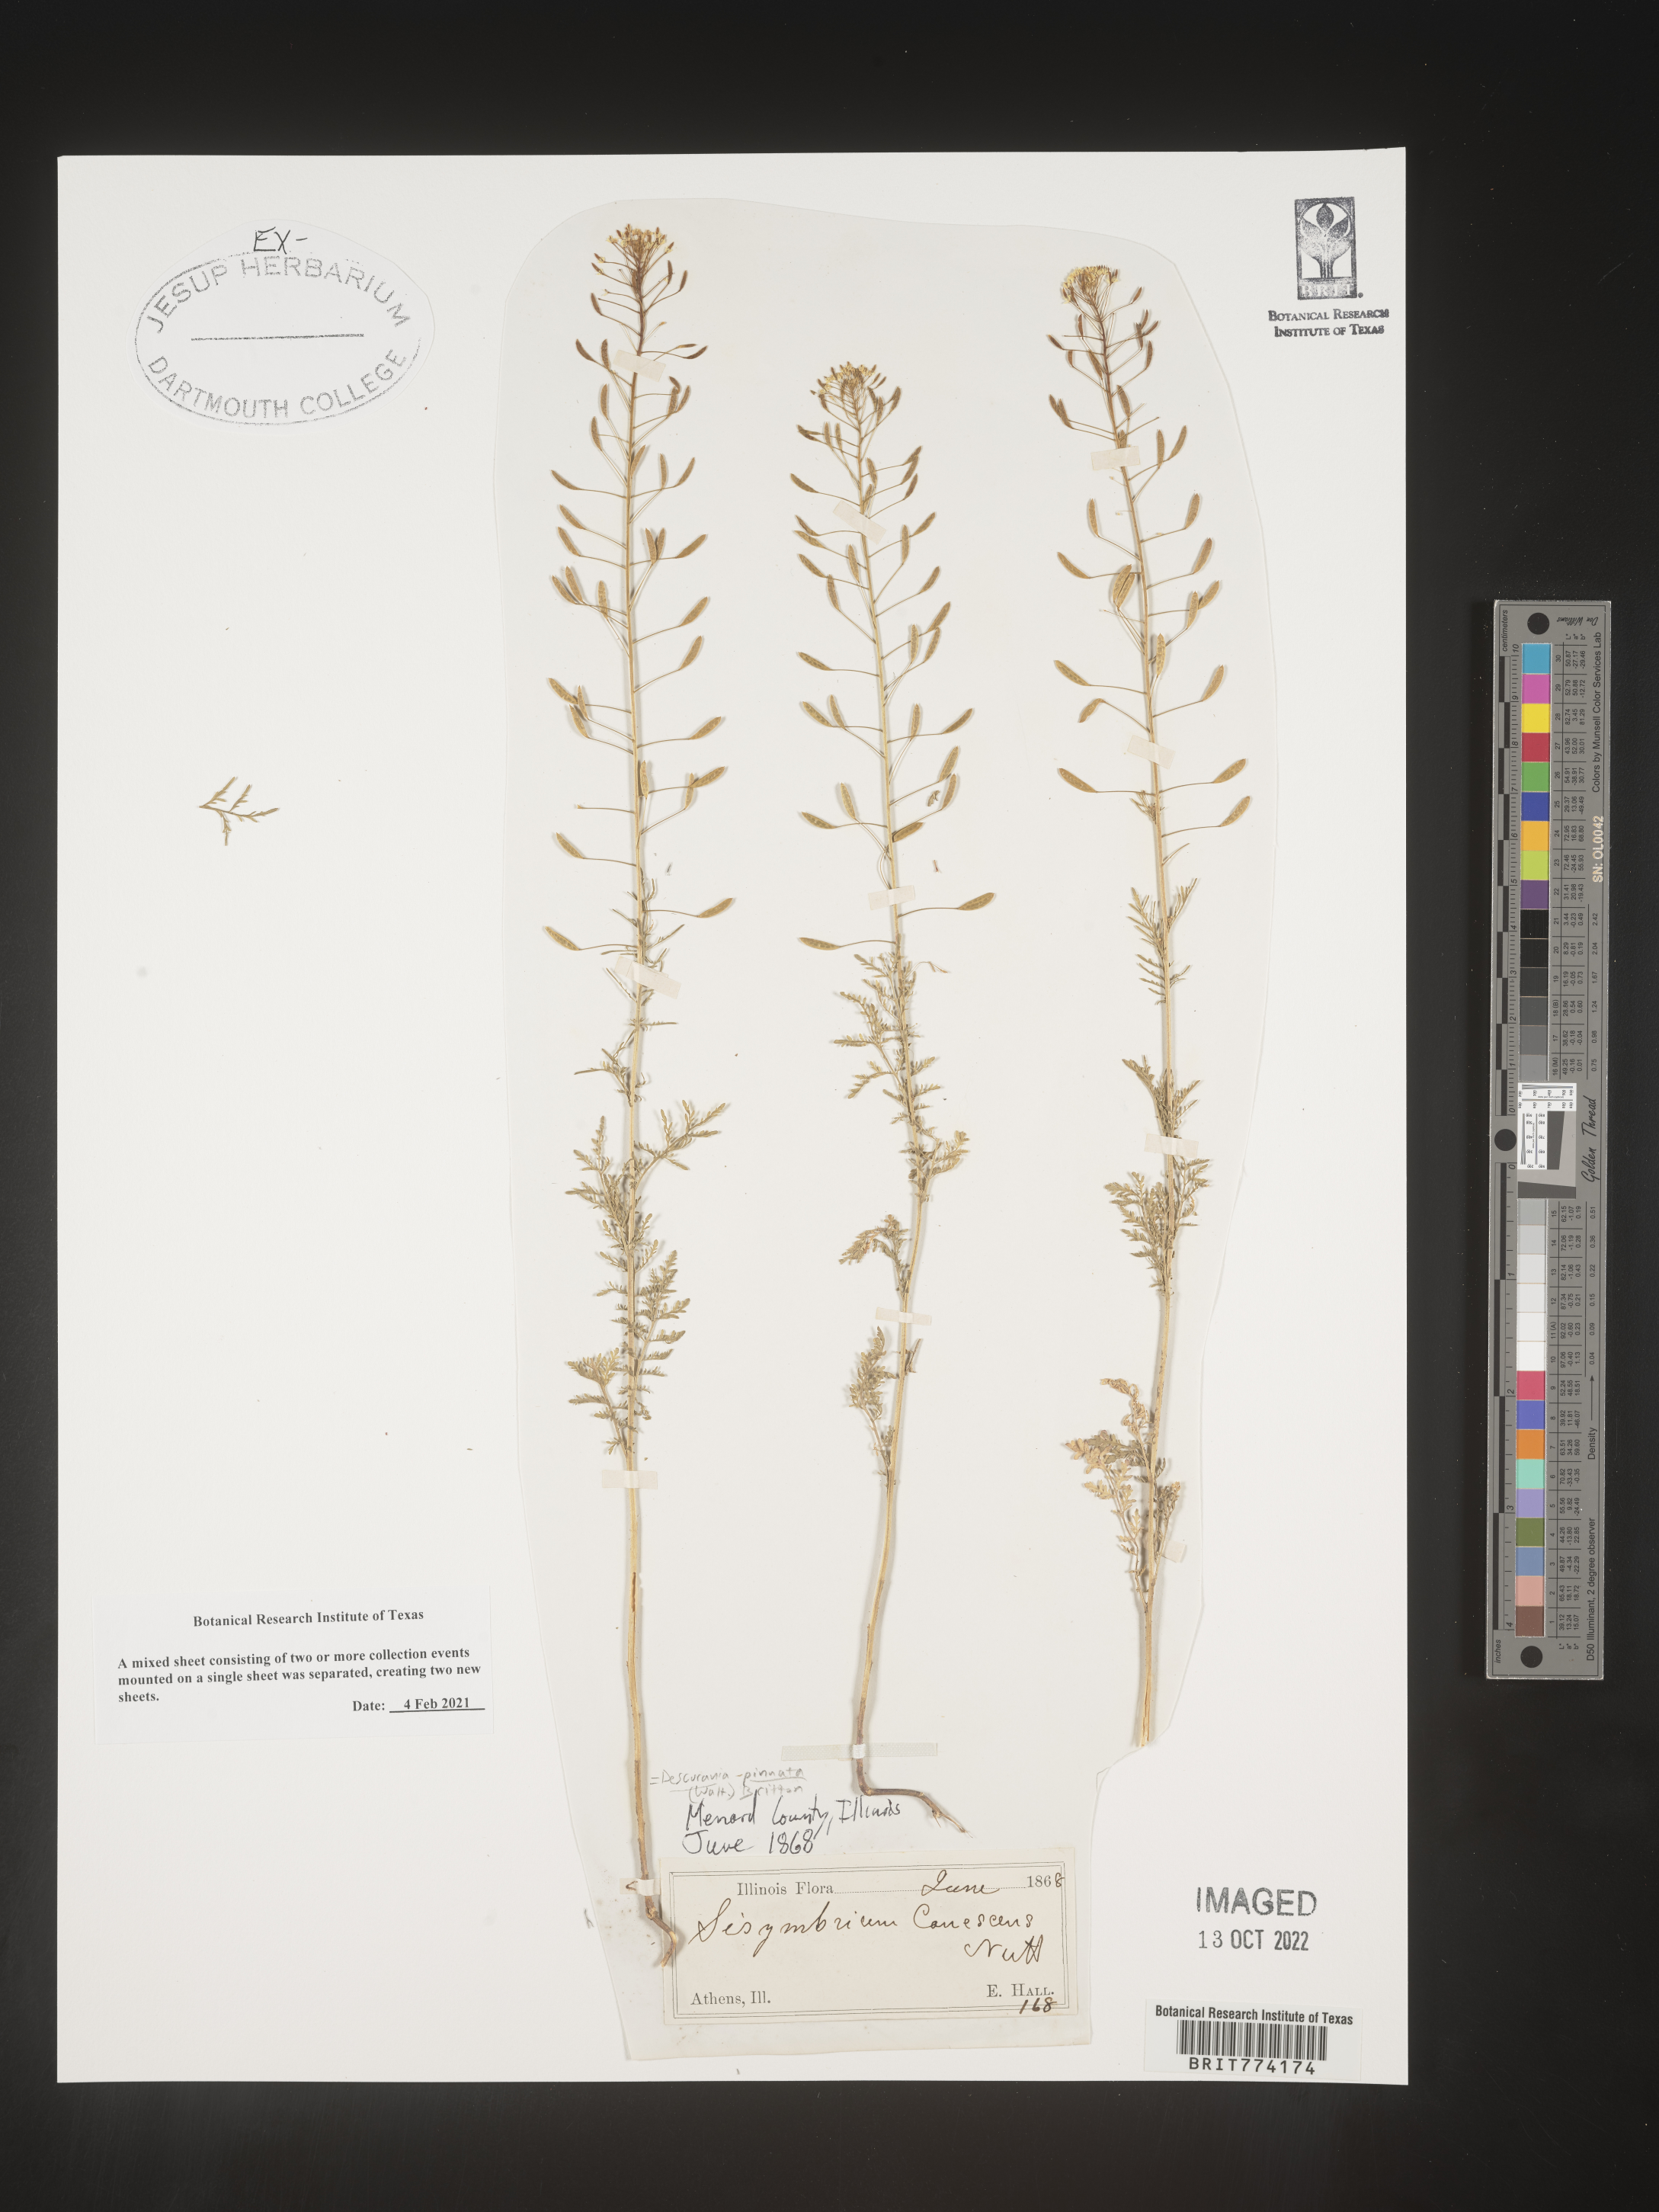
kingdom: Plantae
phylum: Tracheophyta
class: Magnoliopsida
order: Brassicales
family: Brassicaceae
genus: Descurainia
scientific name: Descurainia pinnata
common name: Western tansy mustard
